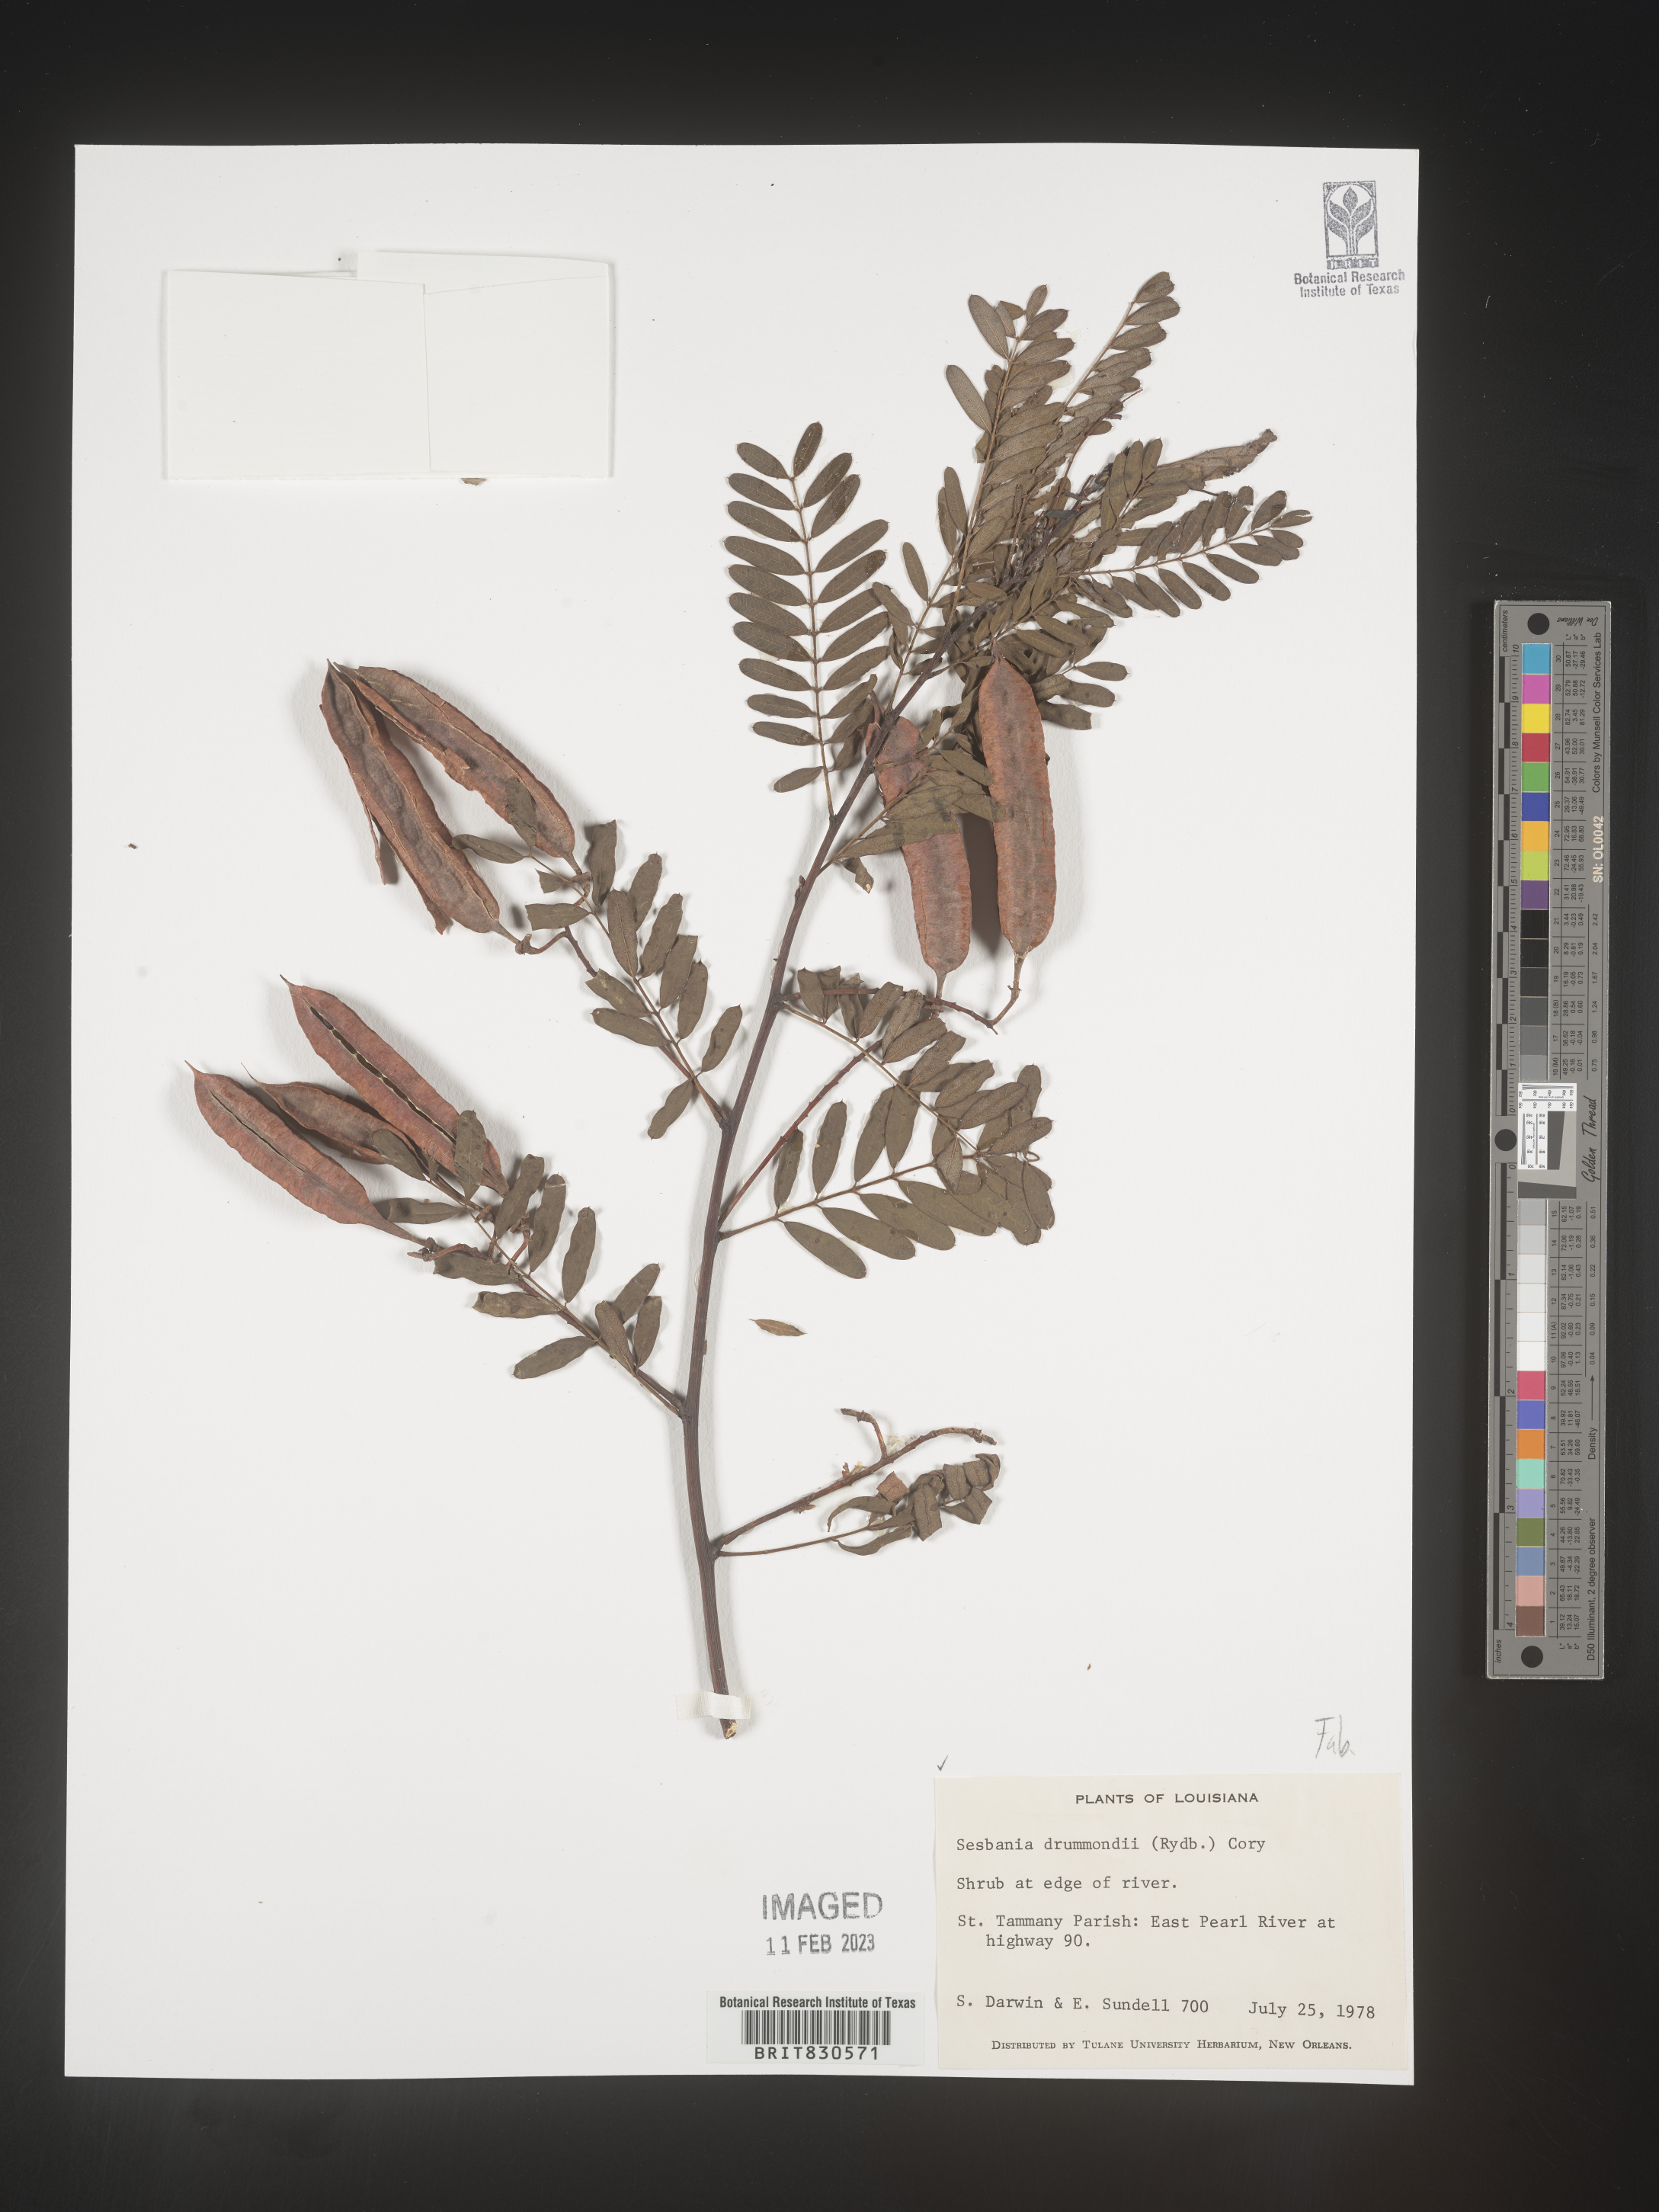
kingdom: Plantae
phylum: Tracheophyta
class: Magnoliopsida
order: Fabales
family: Fabaceae
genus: Sesbania
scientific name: Sesbania drummondii
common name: Poison-bean
